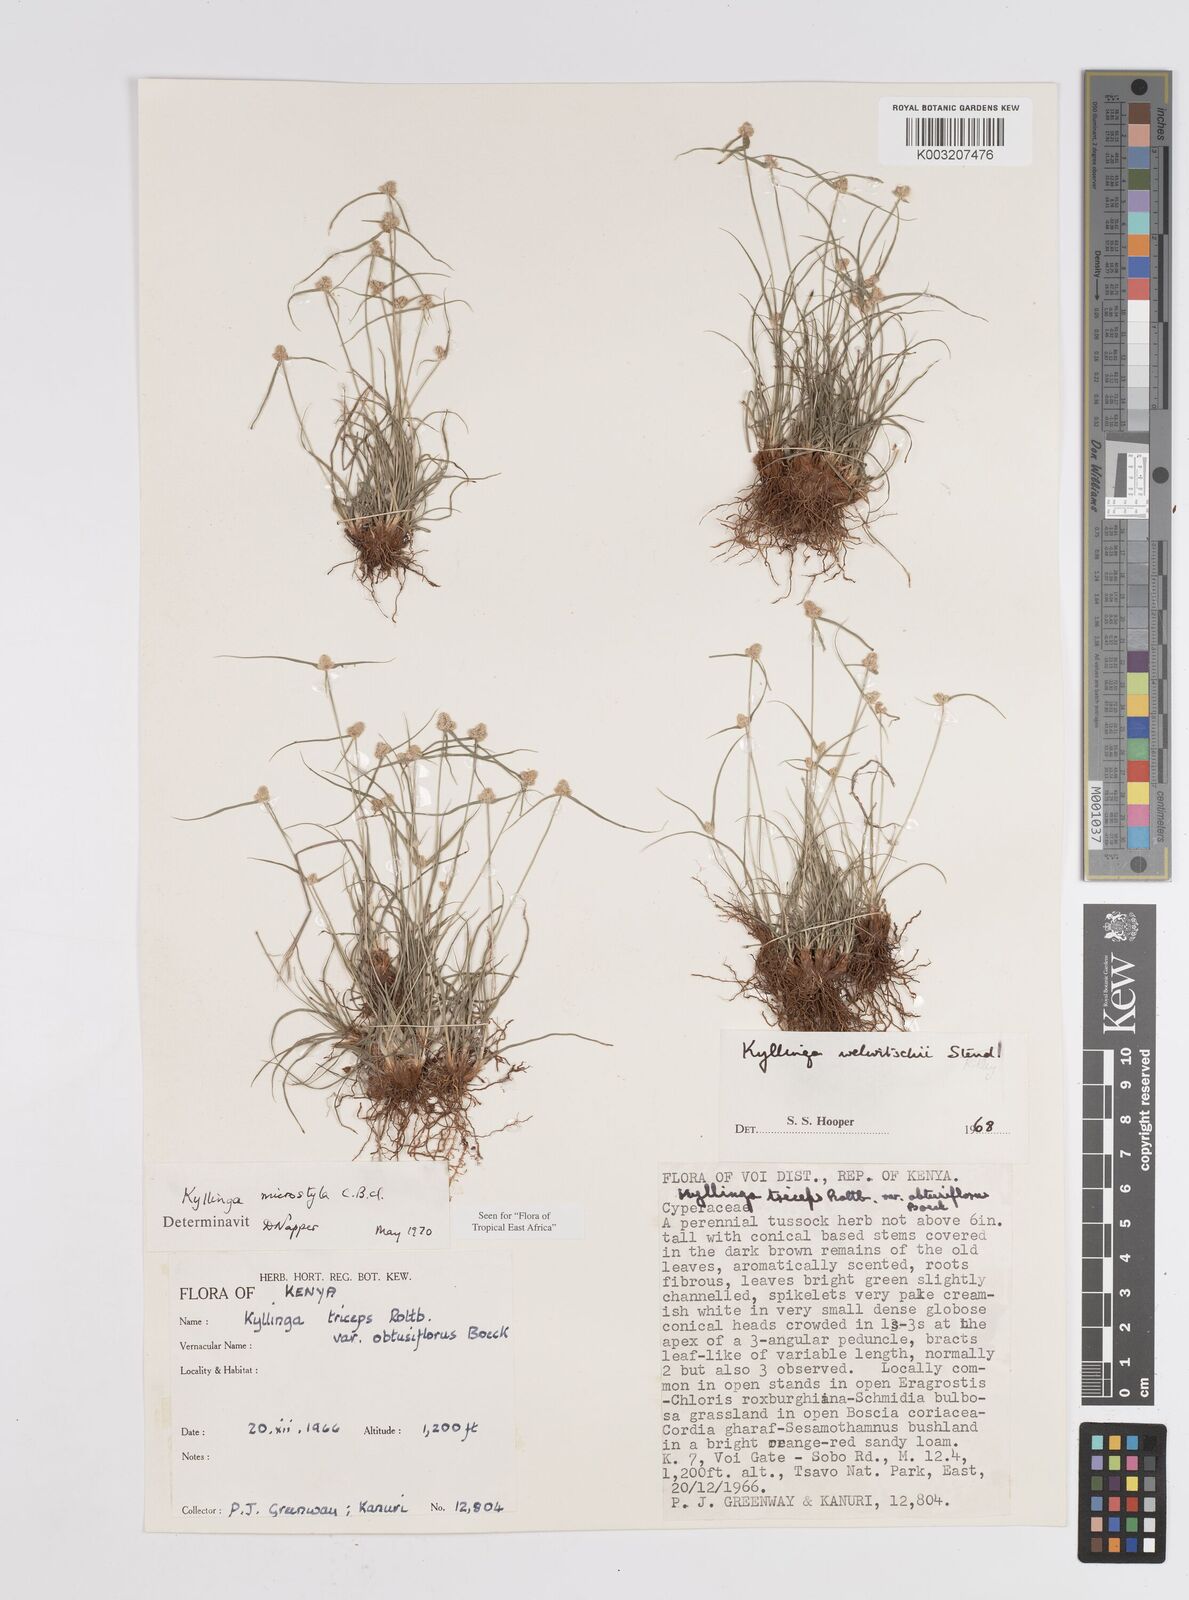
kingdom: Plantae
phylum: Tracheophyta
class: Liliopsida
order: Poales
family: Cyperaceae
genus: Cyperus
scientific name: Cyperus microstylus
